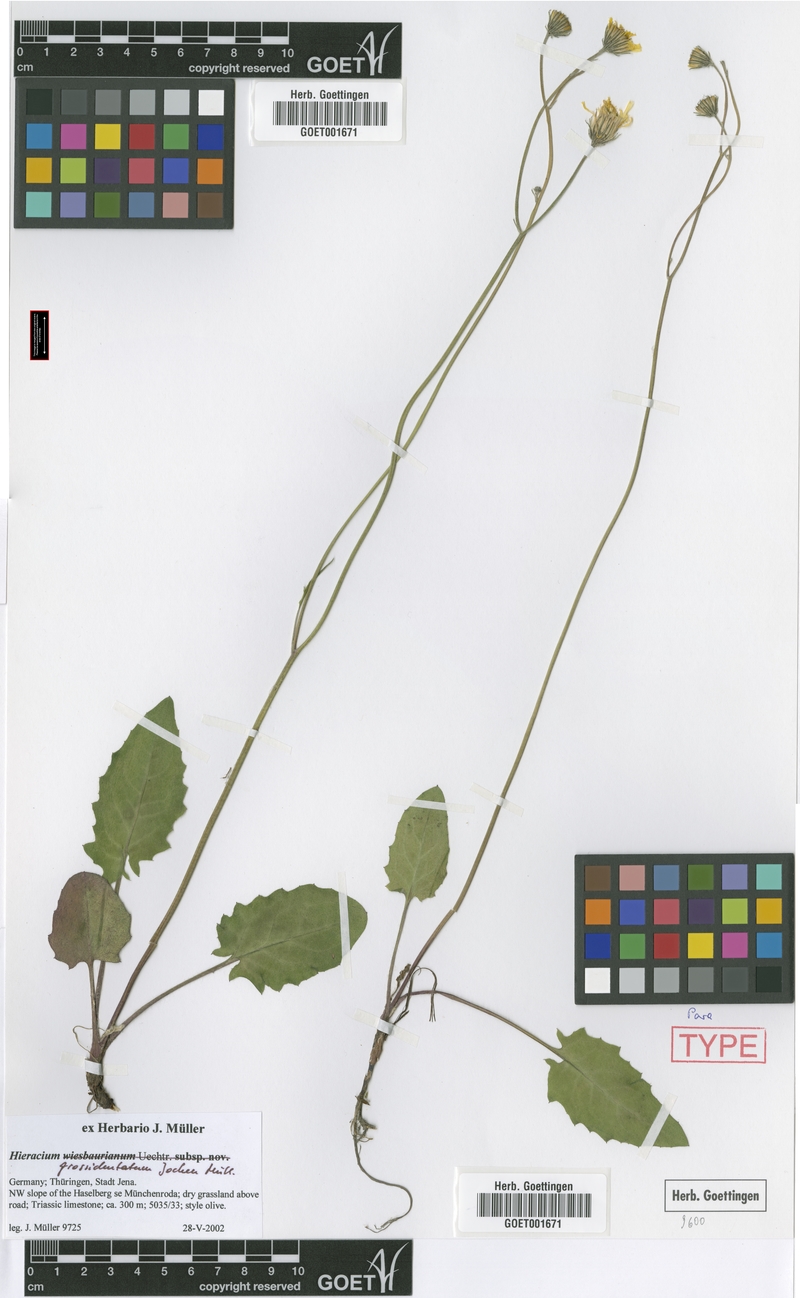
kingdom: Plantae
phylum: Tracheophyta
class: Magnoliopsida
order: Asterales
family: Asteraceae
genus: Hieracium
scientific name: Hieracium hypochoeroides
